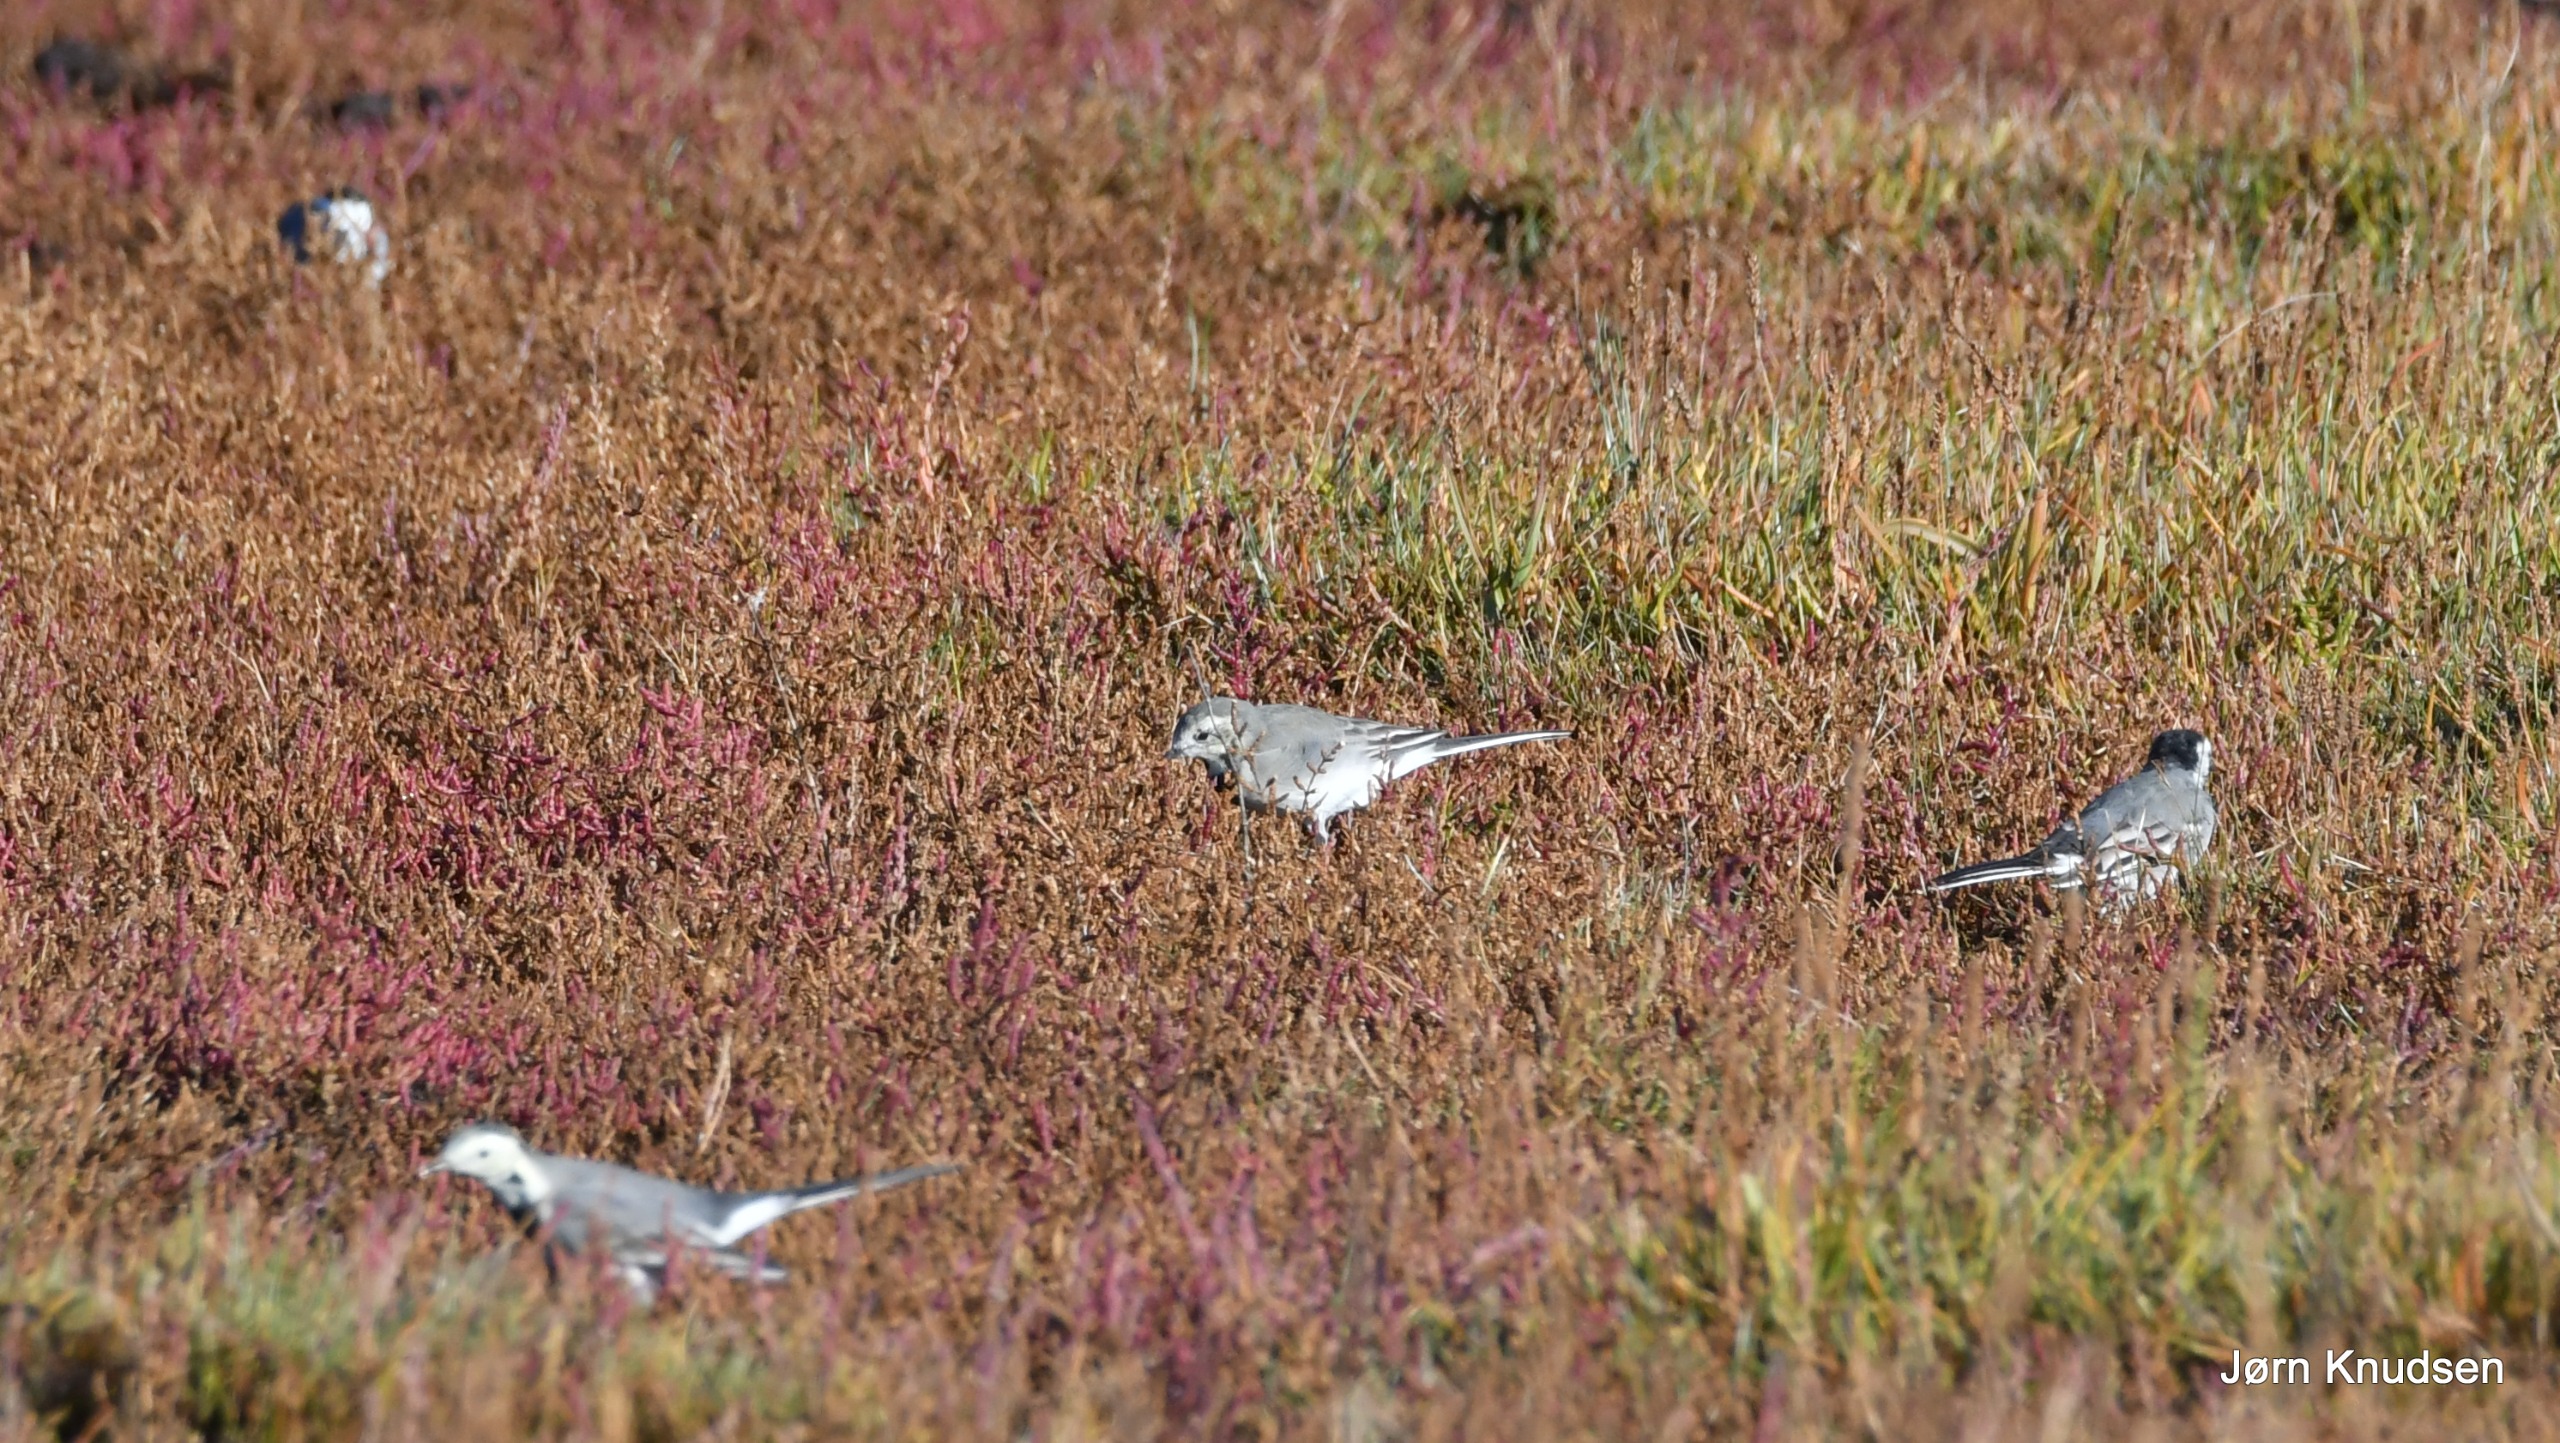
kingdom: Animalia
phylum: Chordata
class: Aves
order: Passeriformes
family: Motacillidae
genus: Motacilla
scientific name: Motacilla alba
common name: Hvid vipstjert
